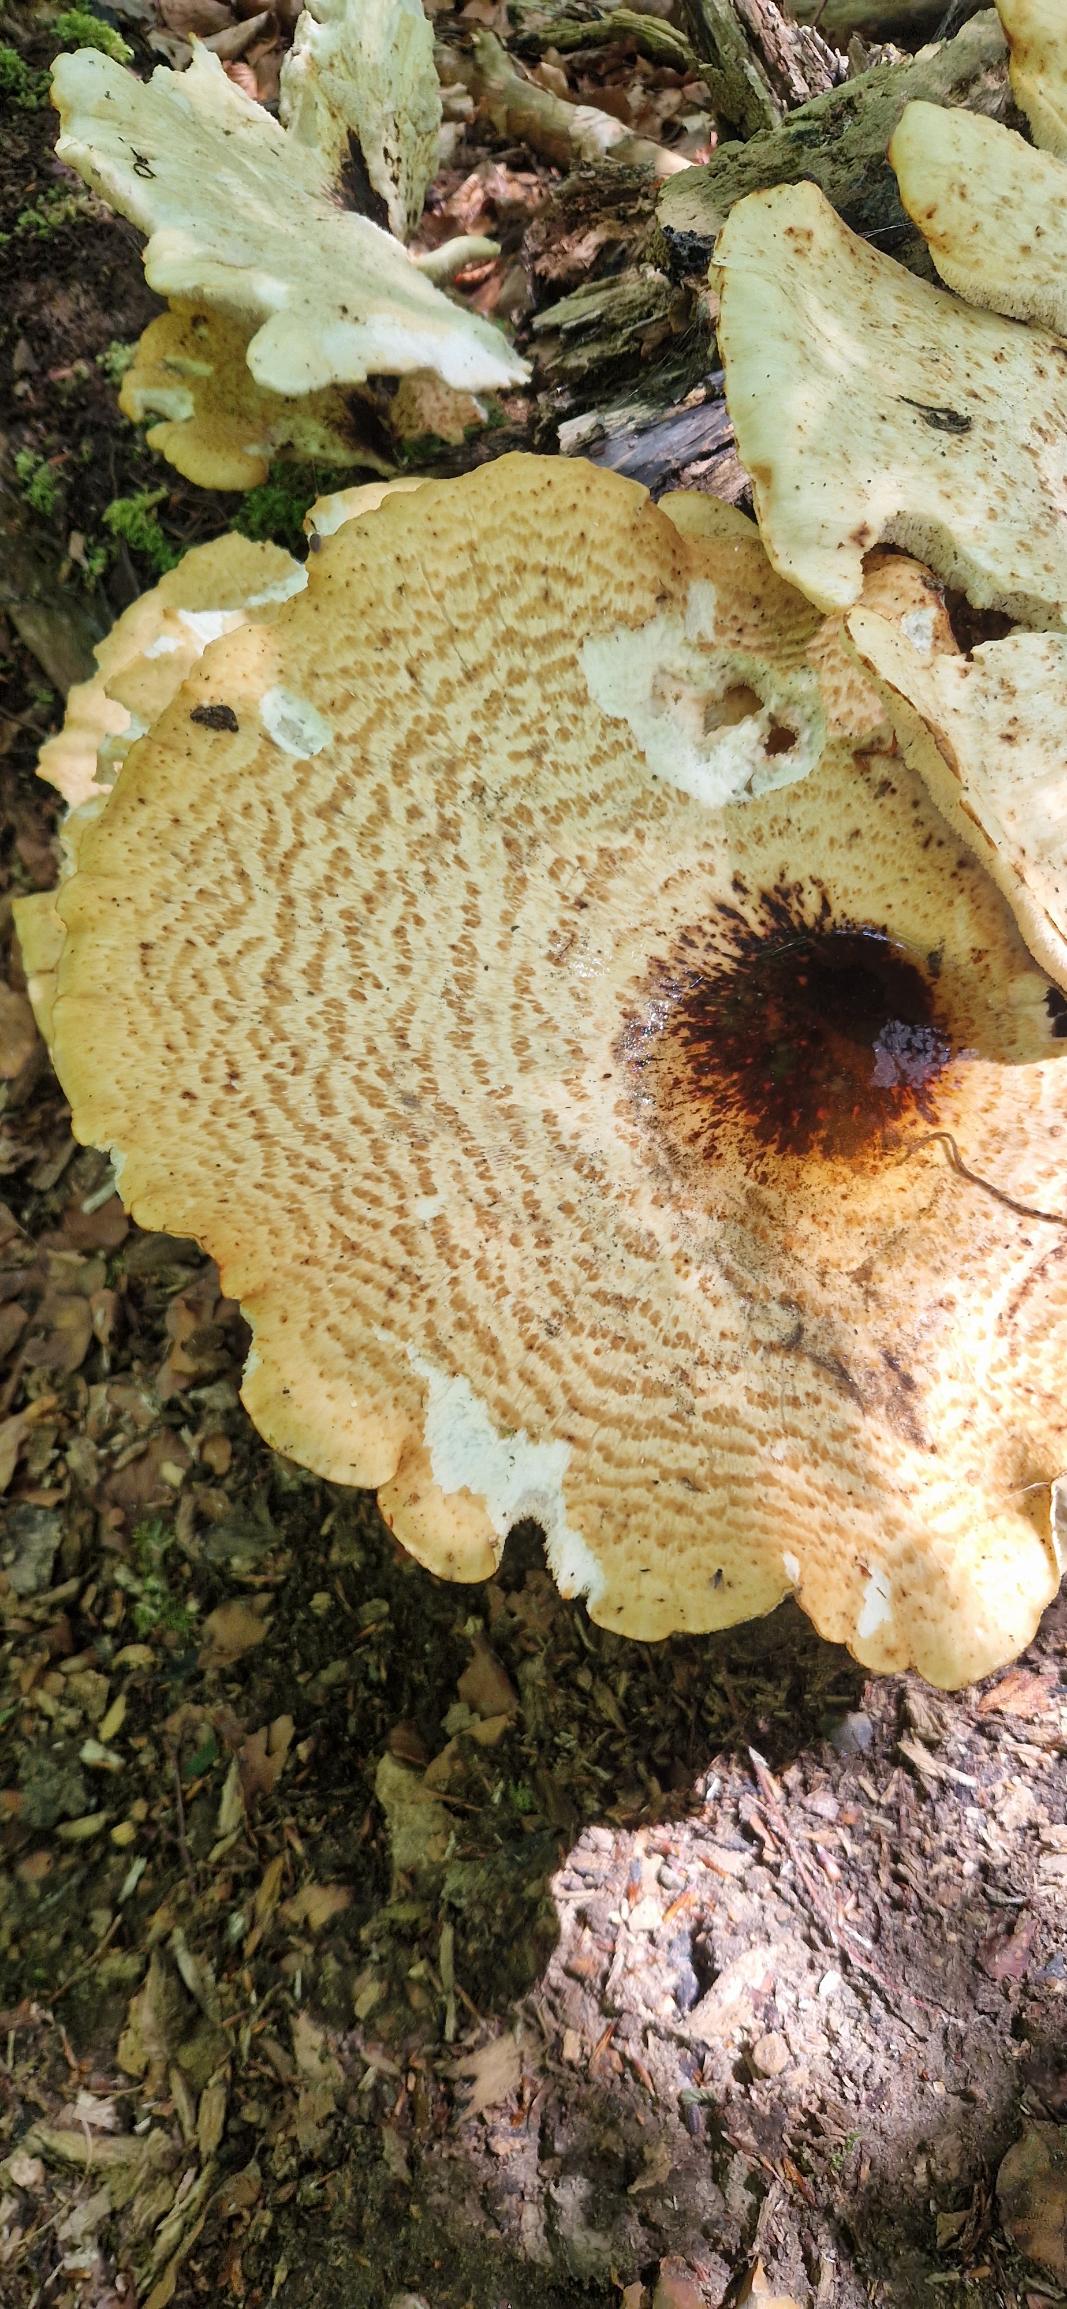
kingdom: Fungi
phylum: Basidiomycota
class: Agaricomycetes
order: Polyporales
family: Polyporaceae
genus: Cerioporus
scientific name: Cerioporus squamosus
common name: Skællet stilkporesvamp
